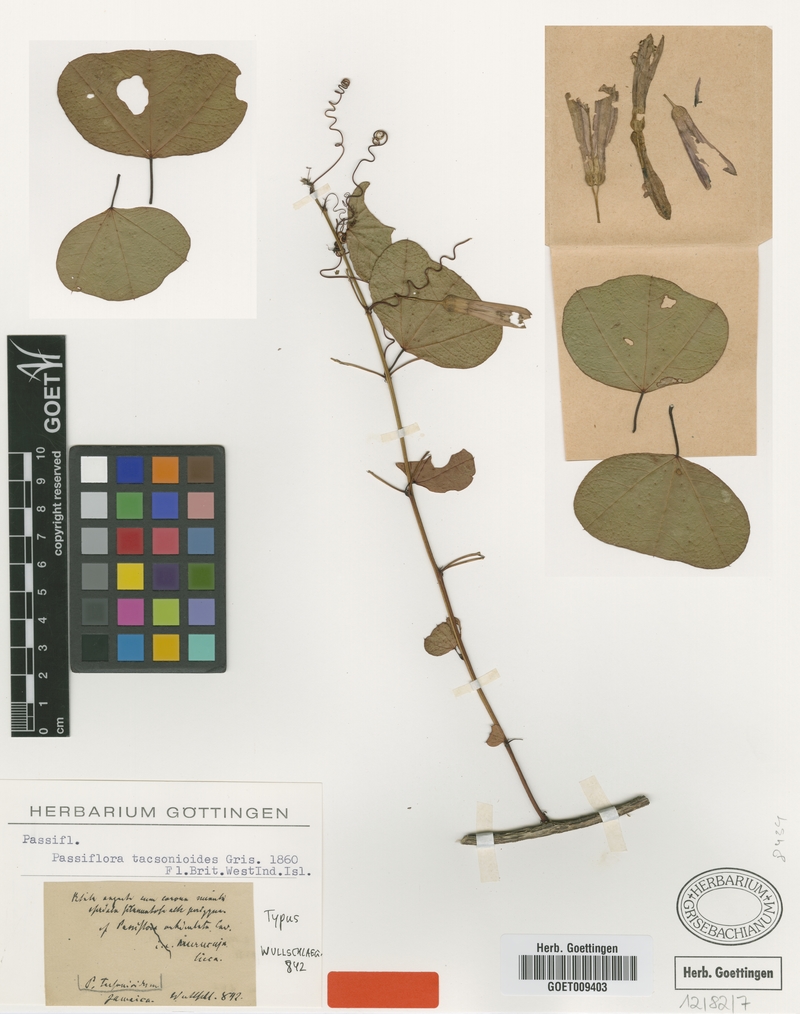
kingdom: Plantae
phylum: Tracheophyta
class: Magnoliopsida
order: Malpighiales
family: Passifloraceae
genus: Passiflora
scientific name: Passiflora tacsonioides
